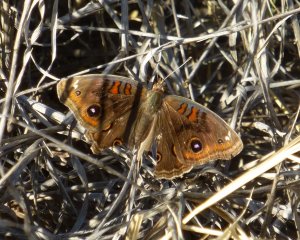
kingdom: Animalia
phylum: Arthropoda
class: Insecta
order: Lepidoptera
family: Nymphalidae
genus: Junonia
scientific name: Junonia lavinia
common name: Tropical Buckeye
